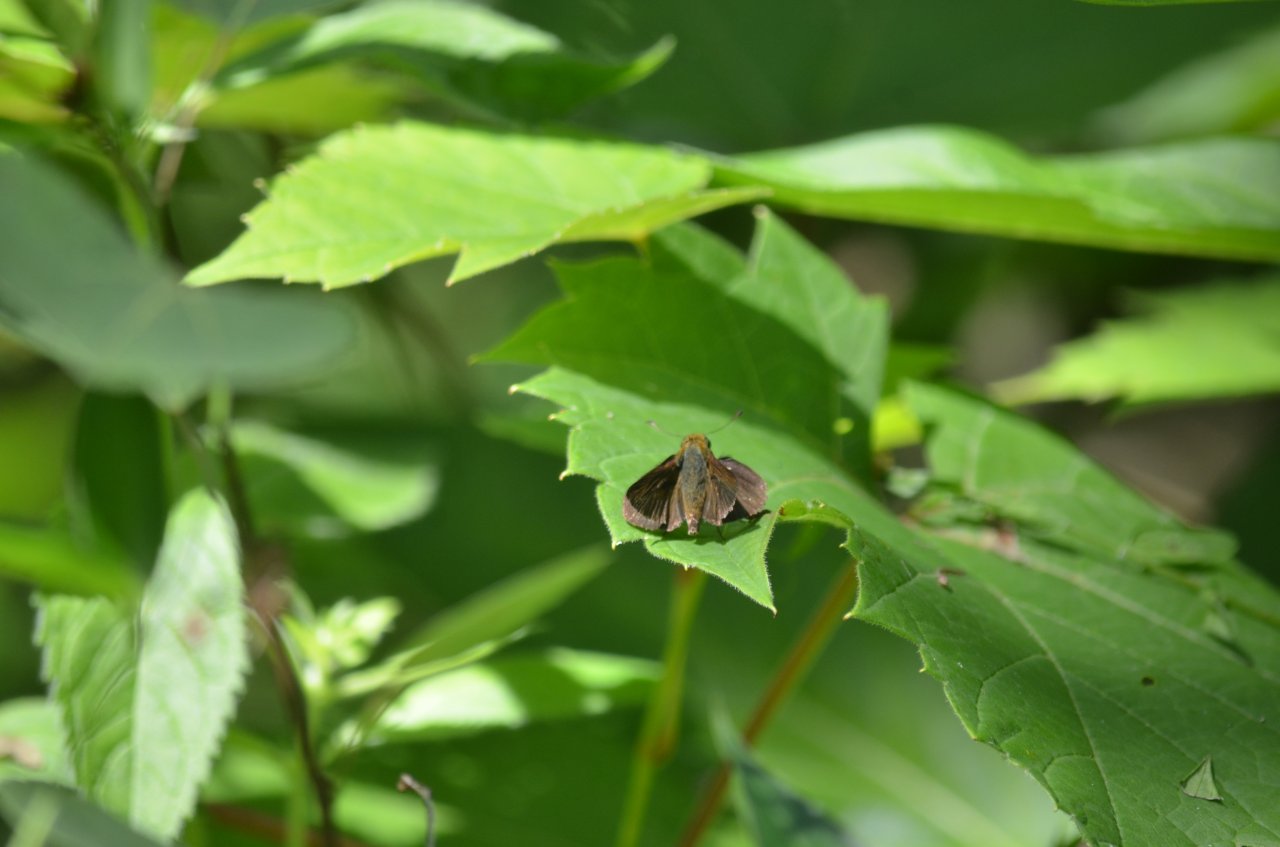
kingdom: Animalia
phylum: Arthropoda
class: Insecta
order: Lepidoptera
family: Hesperiidae
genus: Euphyes
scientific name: Euphyes vestris
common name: Dun Skipper
